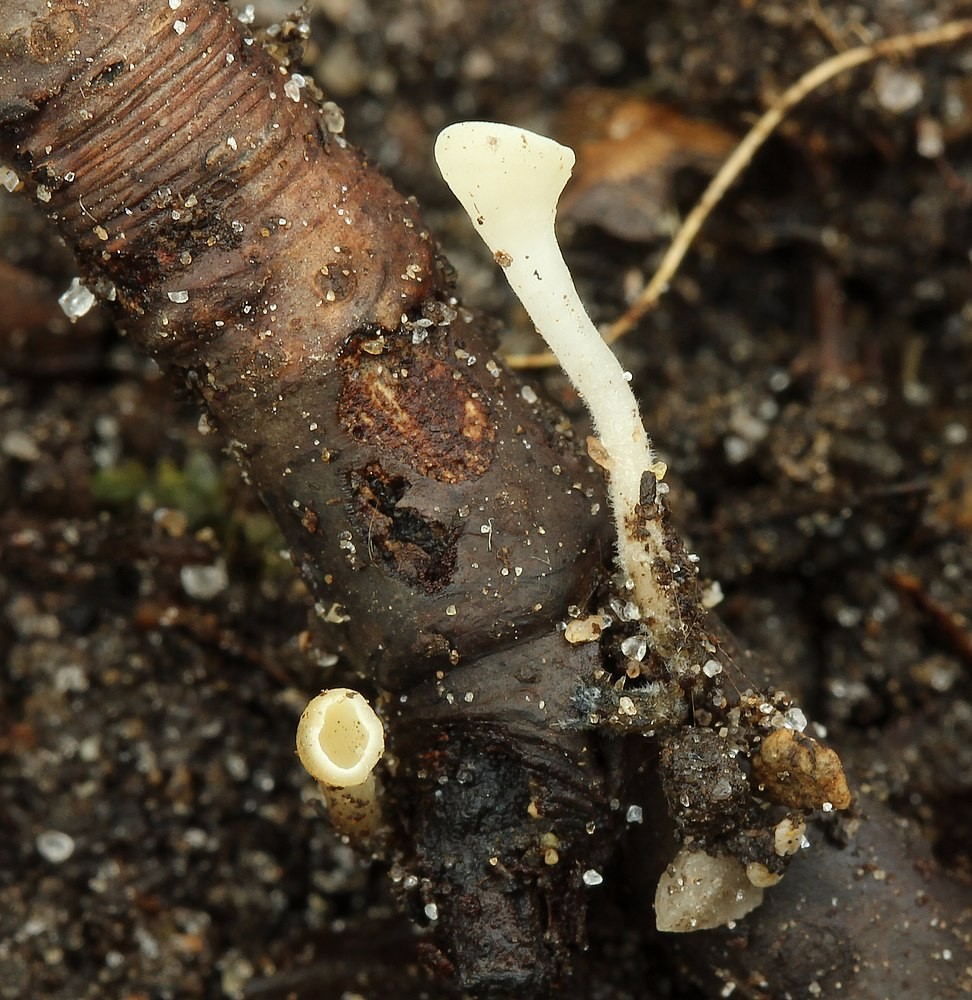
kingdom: Fungi
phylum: Ascomycota
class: Leotiomycetes
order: Helotiales
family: Helotiaceae
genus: Hymenoscyphus
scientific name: Hymenoscyphus serotinus
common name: krumsporet stilkskive
